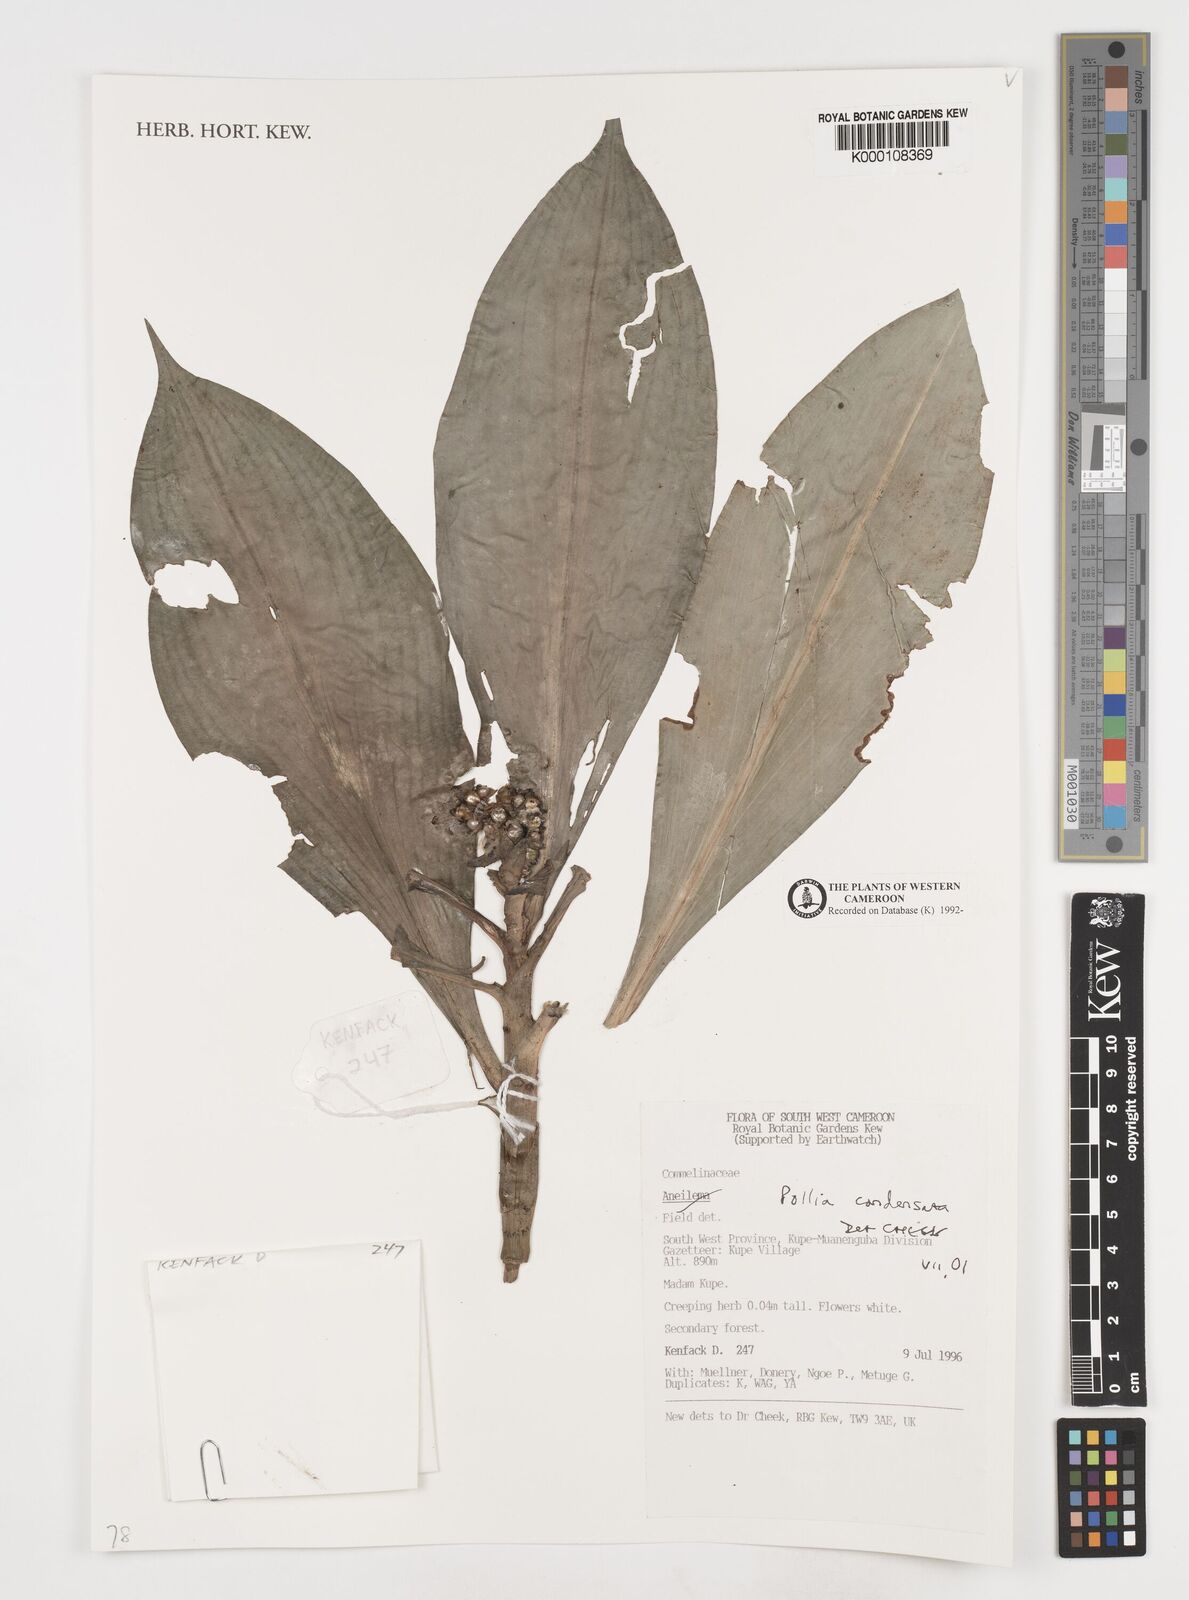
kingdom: Plantae
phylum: Tracheophyta
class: Liliopsida
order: Commelinales
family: Commelinaceae
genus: Pollia
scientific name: Pollia condensata
